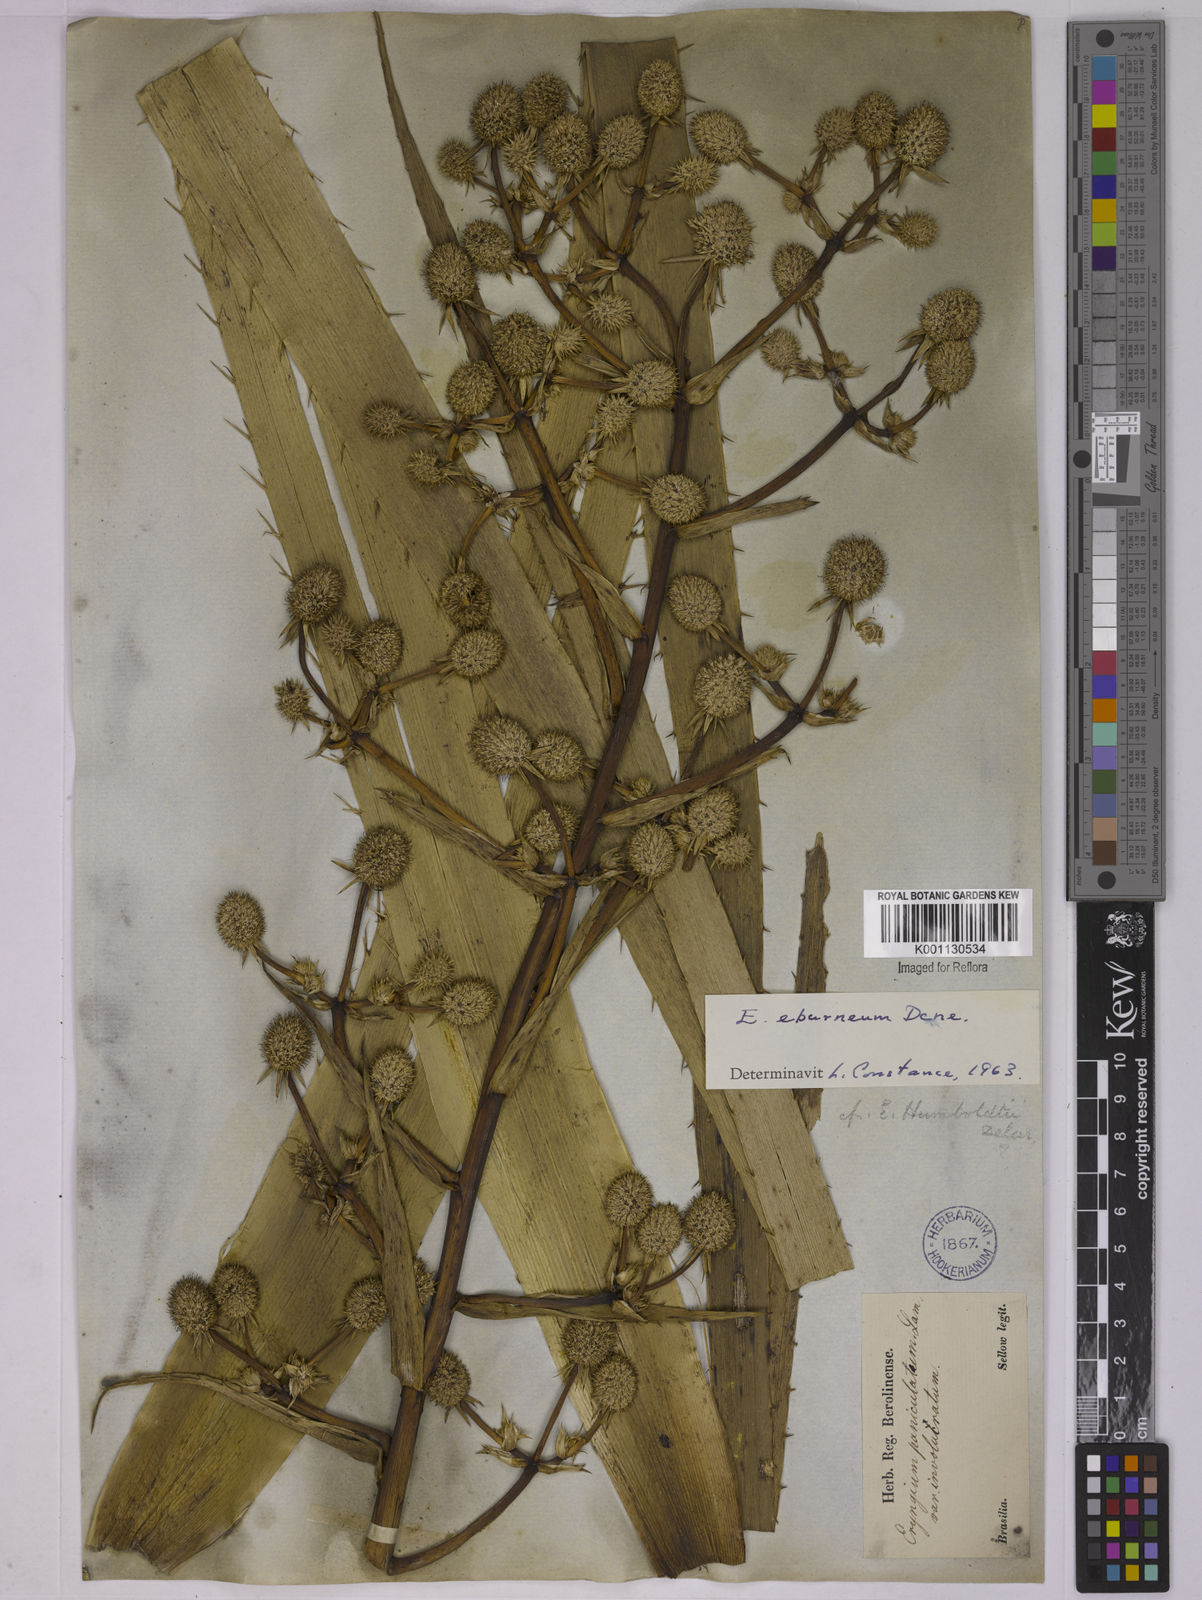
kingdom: Plantae
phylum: Tracheophyta
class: Magnoliopsida
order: Apiales
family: Apiaceae
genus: Eryngium
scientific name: Eryngium eburneum
